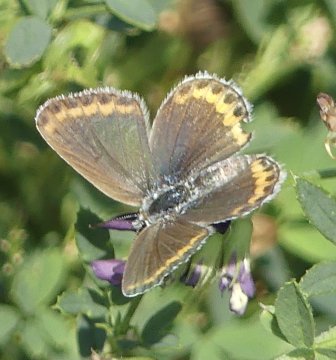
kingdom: Animalia
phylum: Arthropoda
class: Insecta
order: Lepidoptera
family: Lycaenidae
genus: Lycaeides
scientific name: Lycaeides melissa
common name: Melissa Blue
